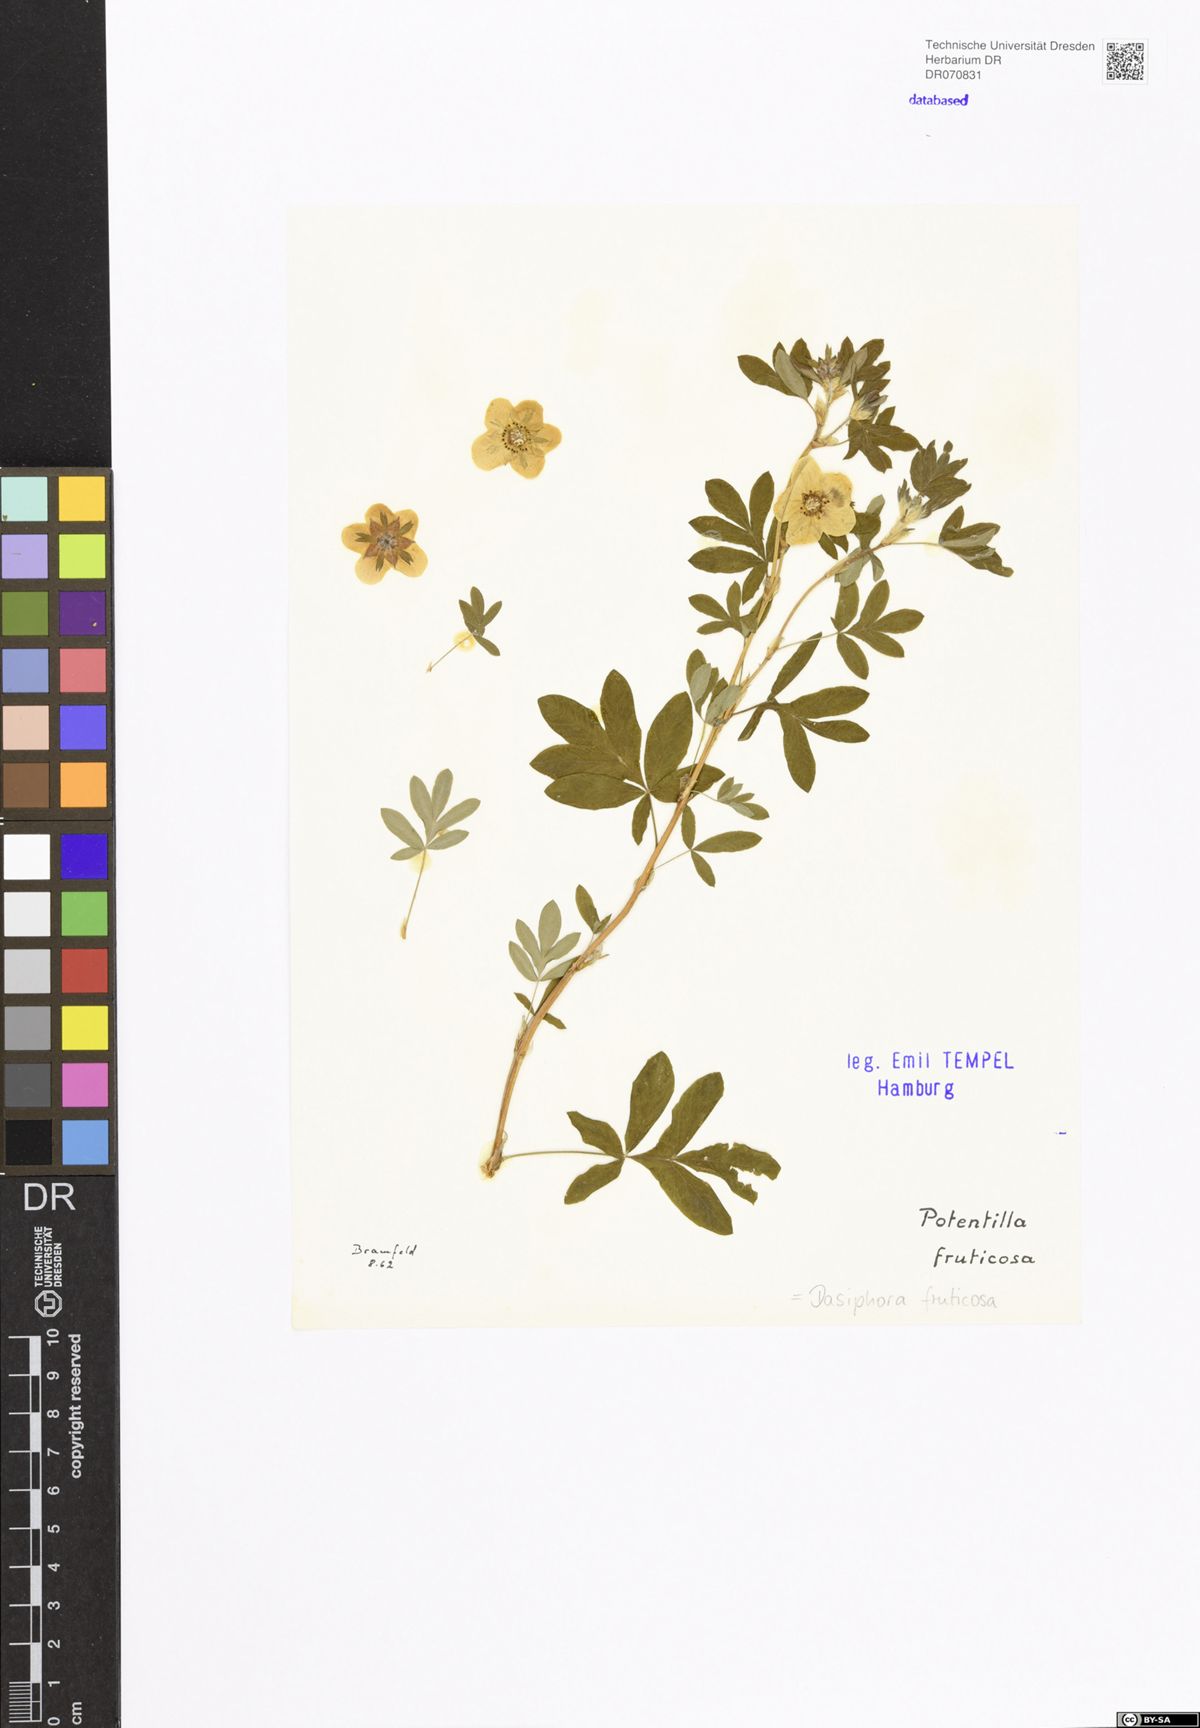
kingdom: Plantae
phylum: Tracheophyta
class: Magnoliopsida
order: Rosales
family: Rosaceae
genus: Dasiphora
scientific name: Dasiphora fruticosa
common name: Shrubby cinquefoil
